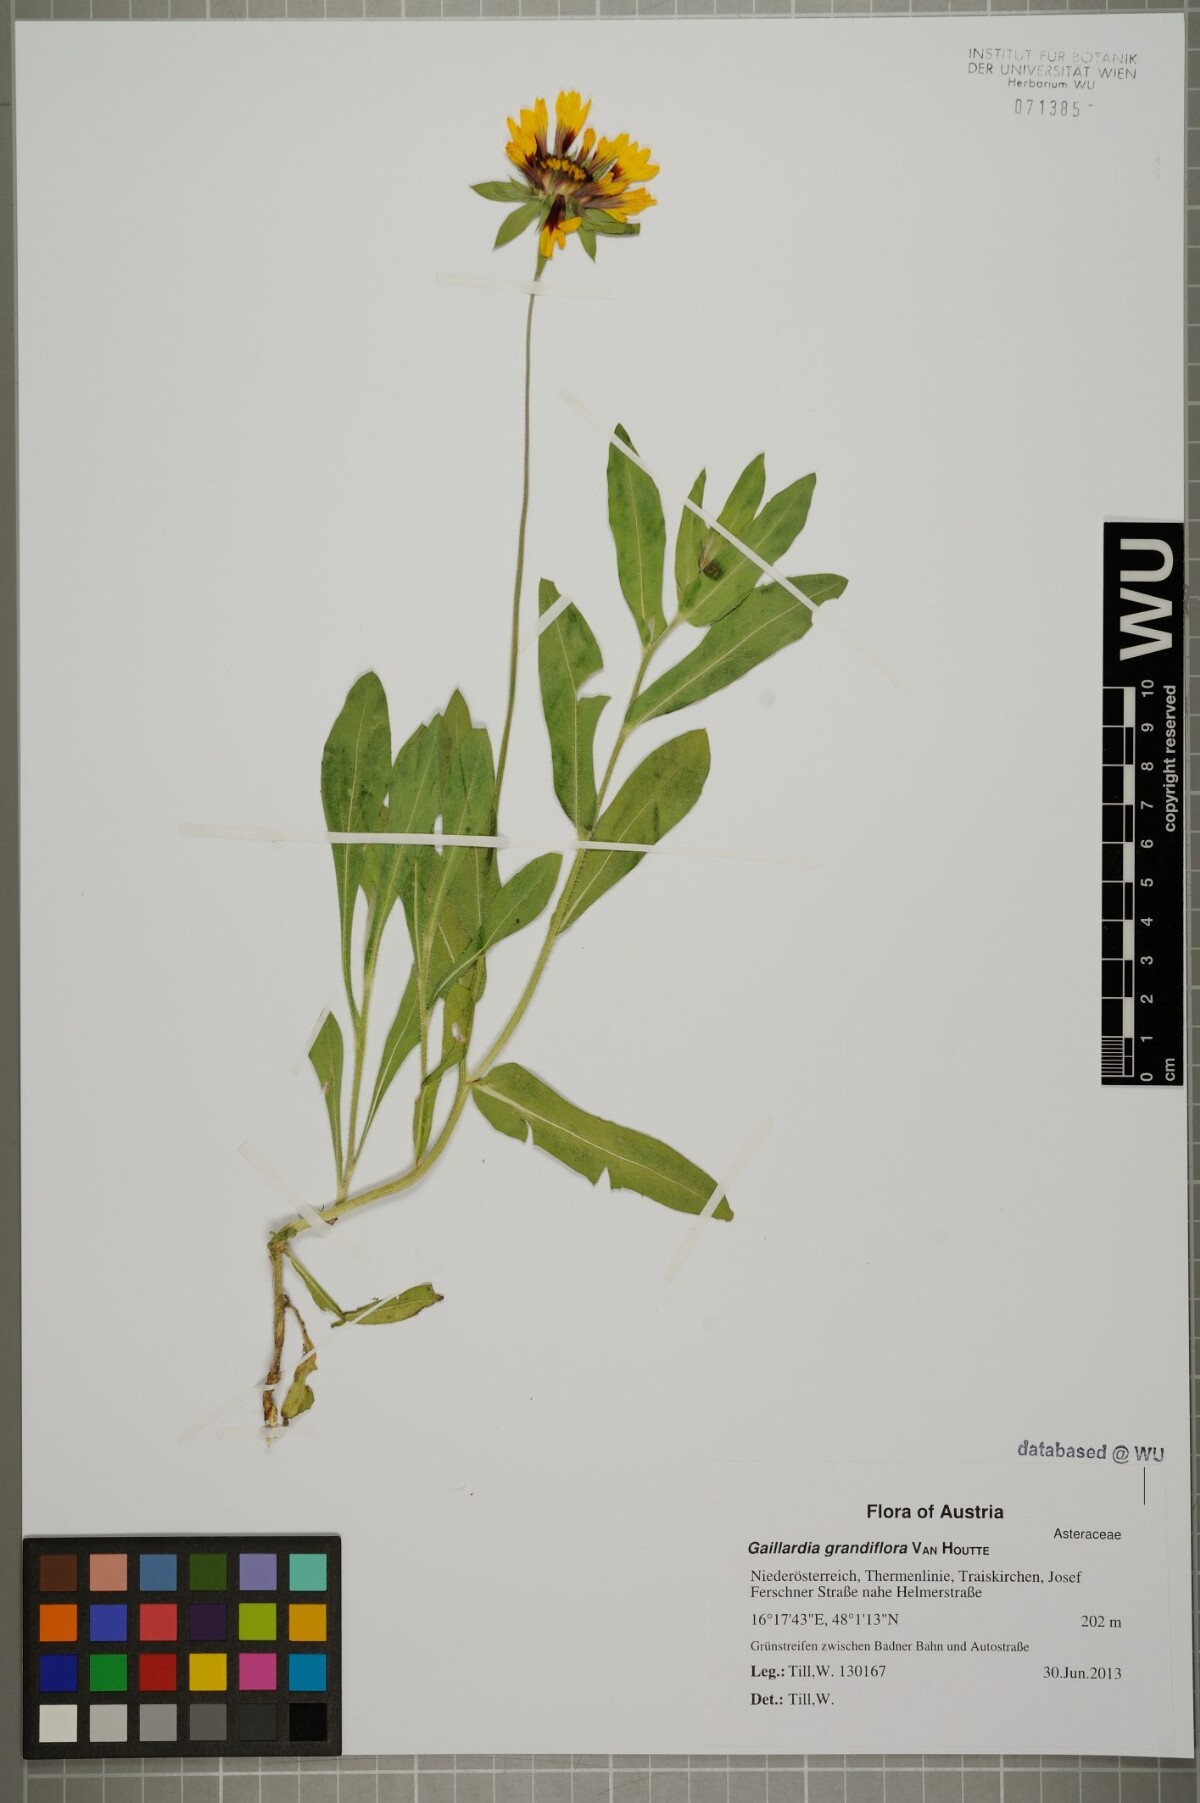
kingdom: Plantae
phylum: Tracheophyta
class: Magnoliopsida
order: Asterales
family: Asteraceae
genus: Gaillardia
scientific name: Gaillardia grandiflora
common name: Blanket flower
